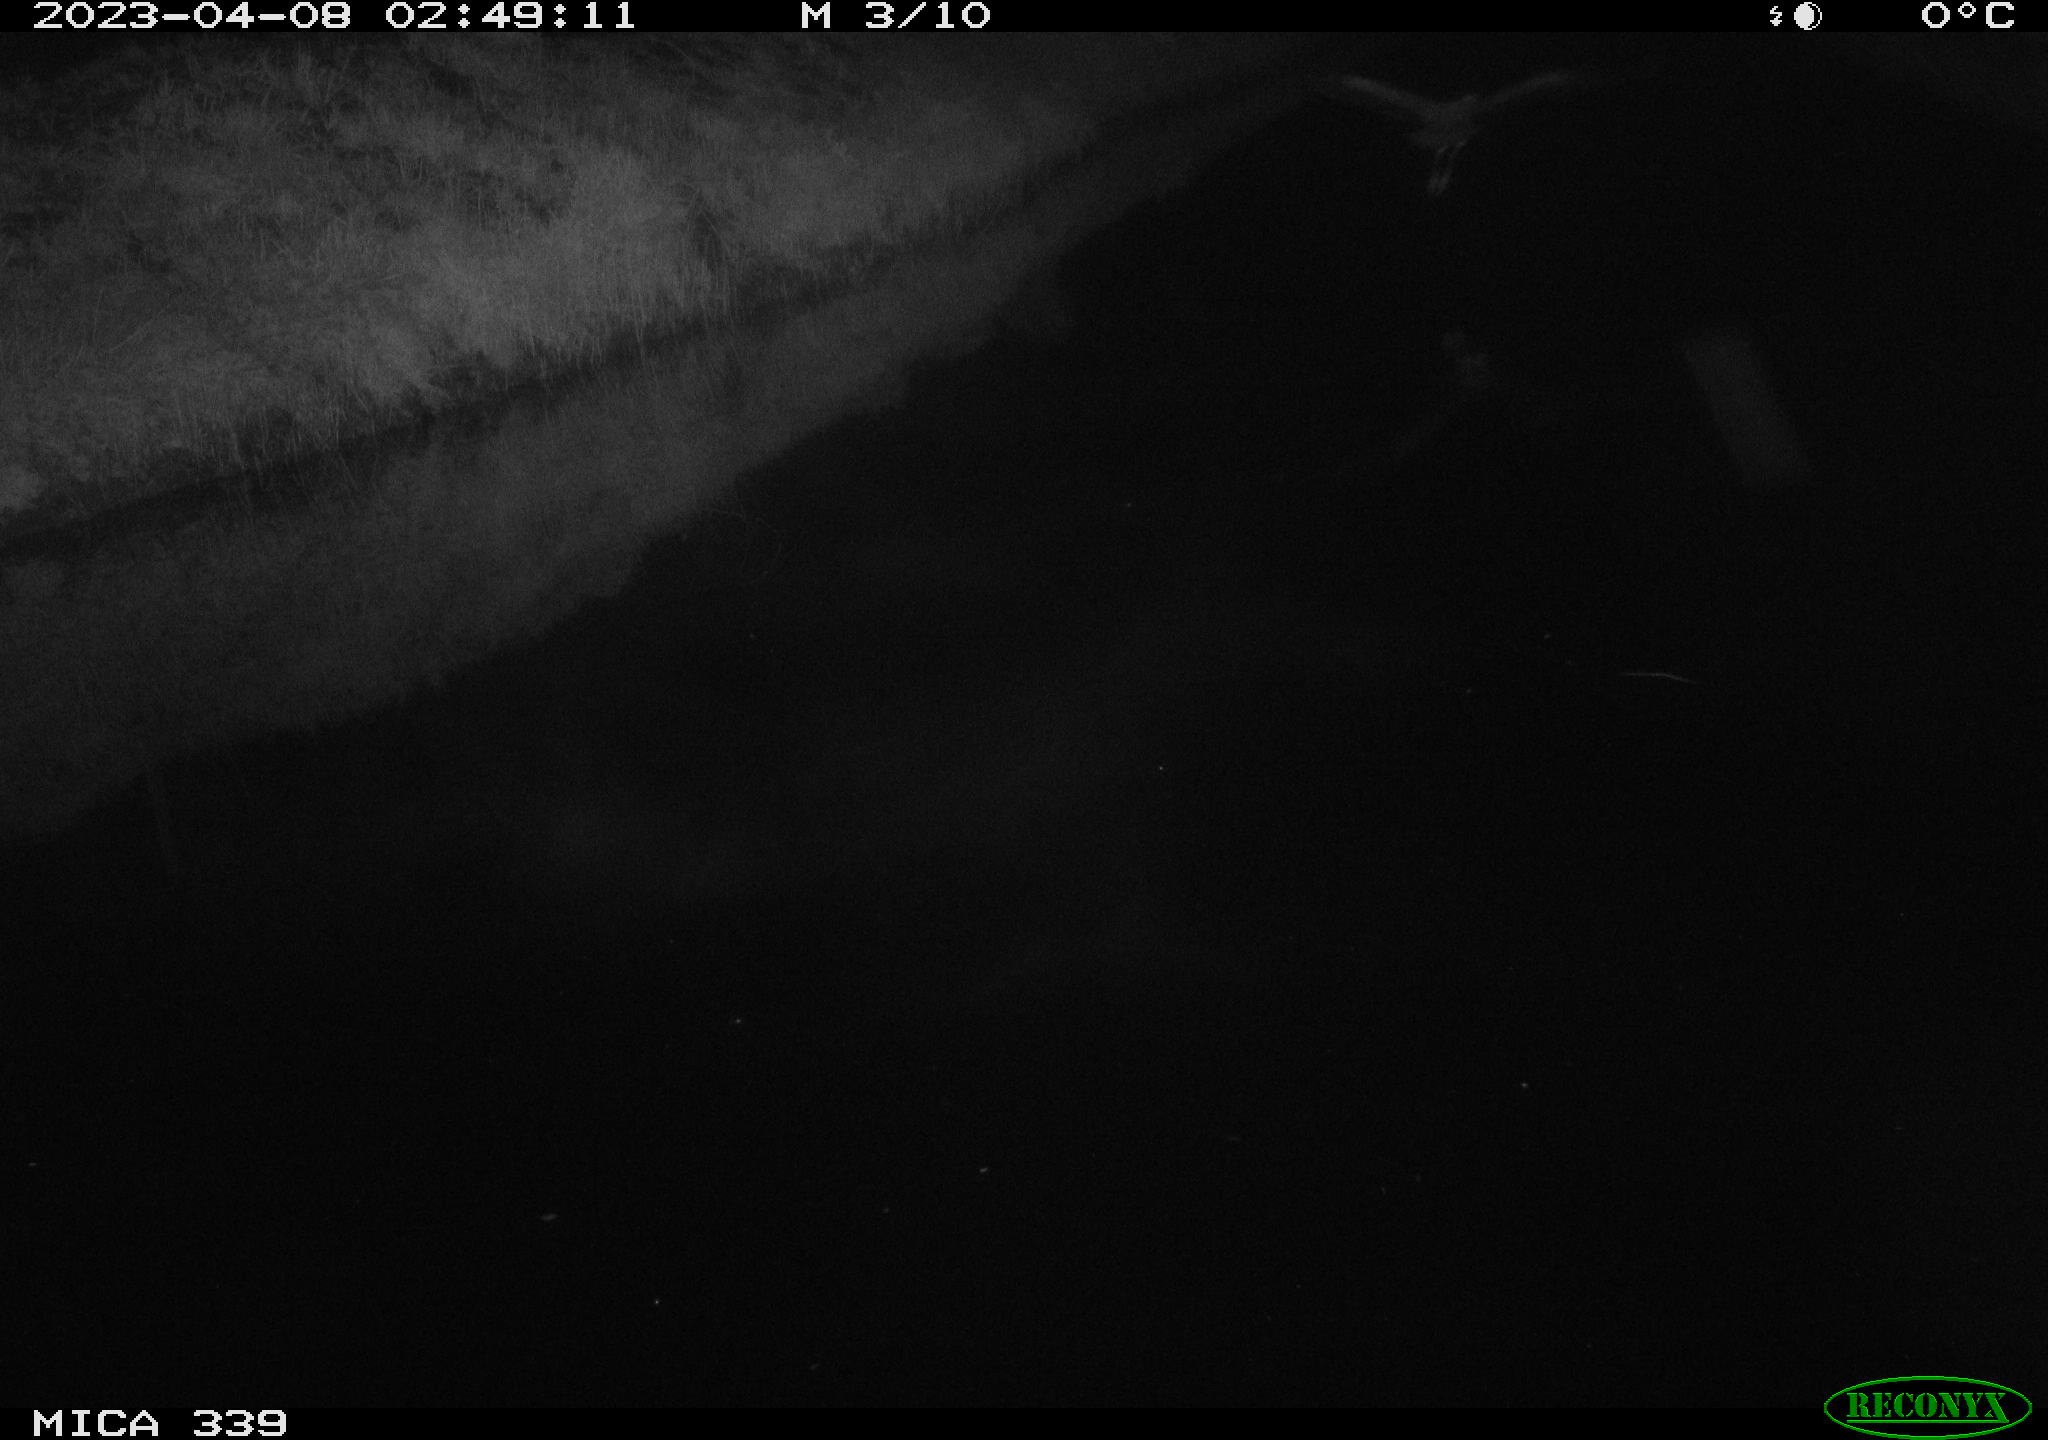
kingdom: Animalia
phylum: Chordata
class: Aves
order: Pelecaniformes
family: Ardeidae
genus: Ardea
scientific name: Ardea cinerea
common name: Grey heron
